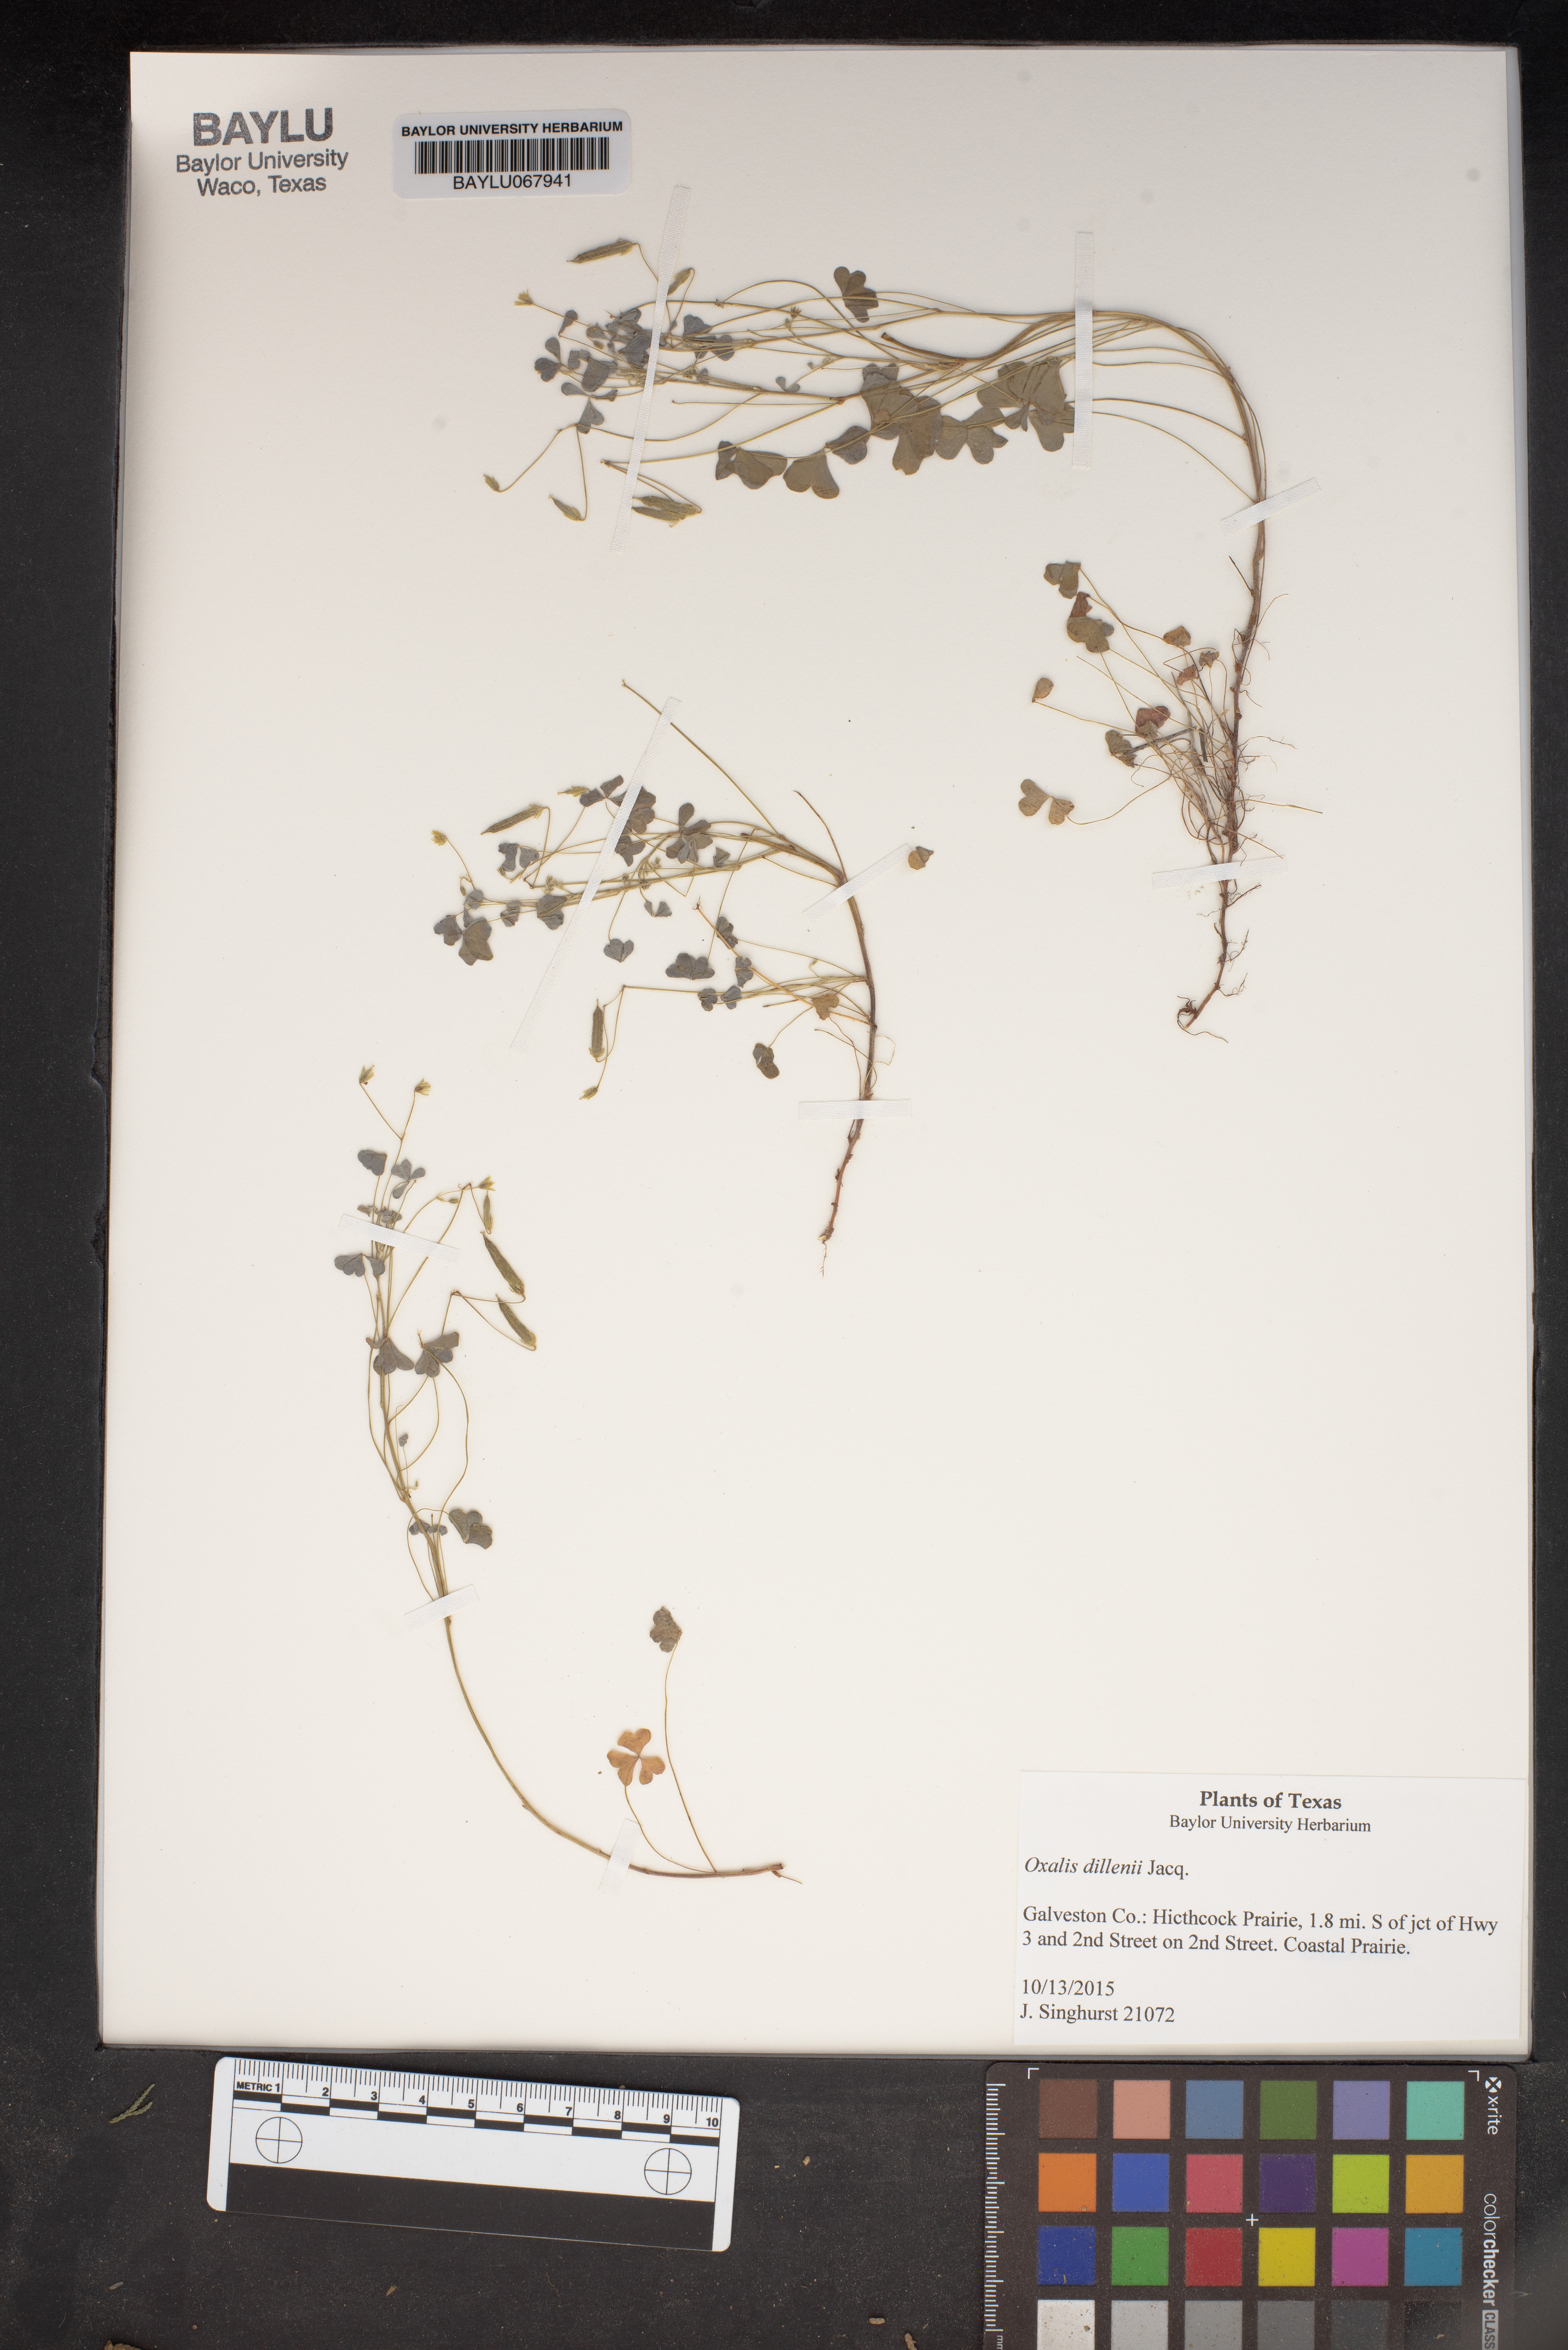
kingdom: Plantae
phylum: Tracheophyta
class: Magnoliopsida
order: Oxalidales
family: Oxalidaceae
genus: Oxalis
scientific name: Oxalis dillenii
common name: Sussex yellow-sorrel
